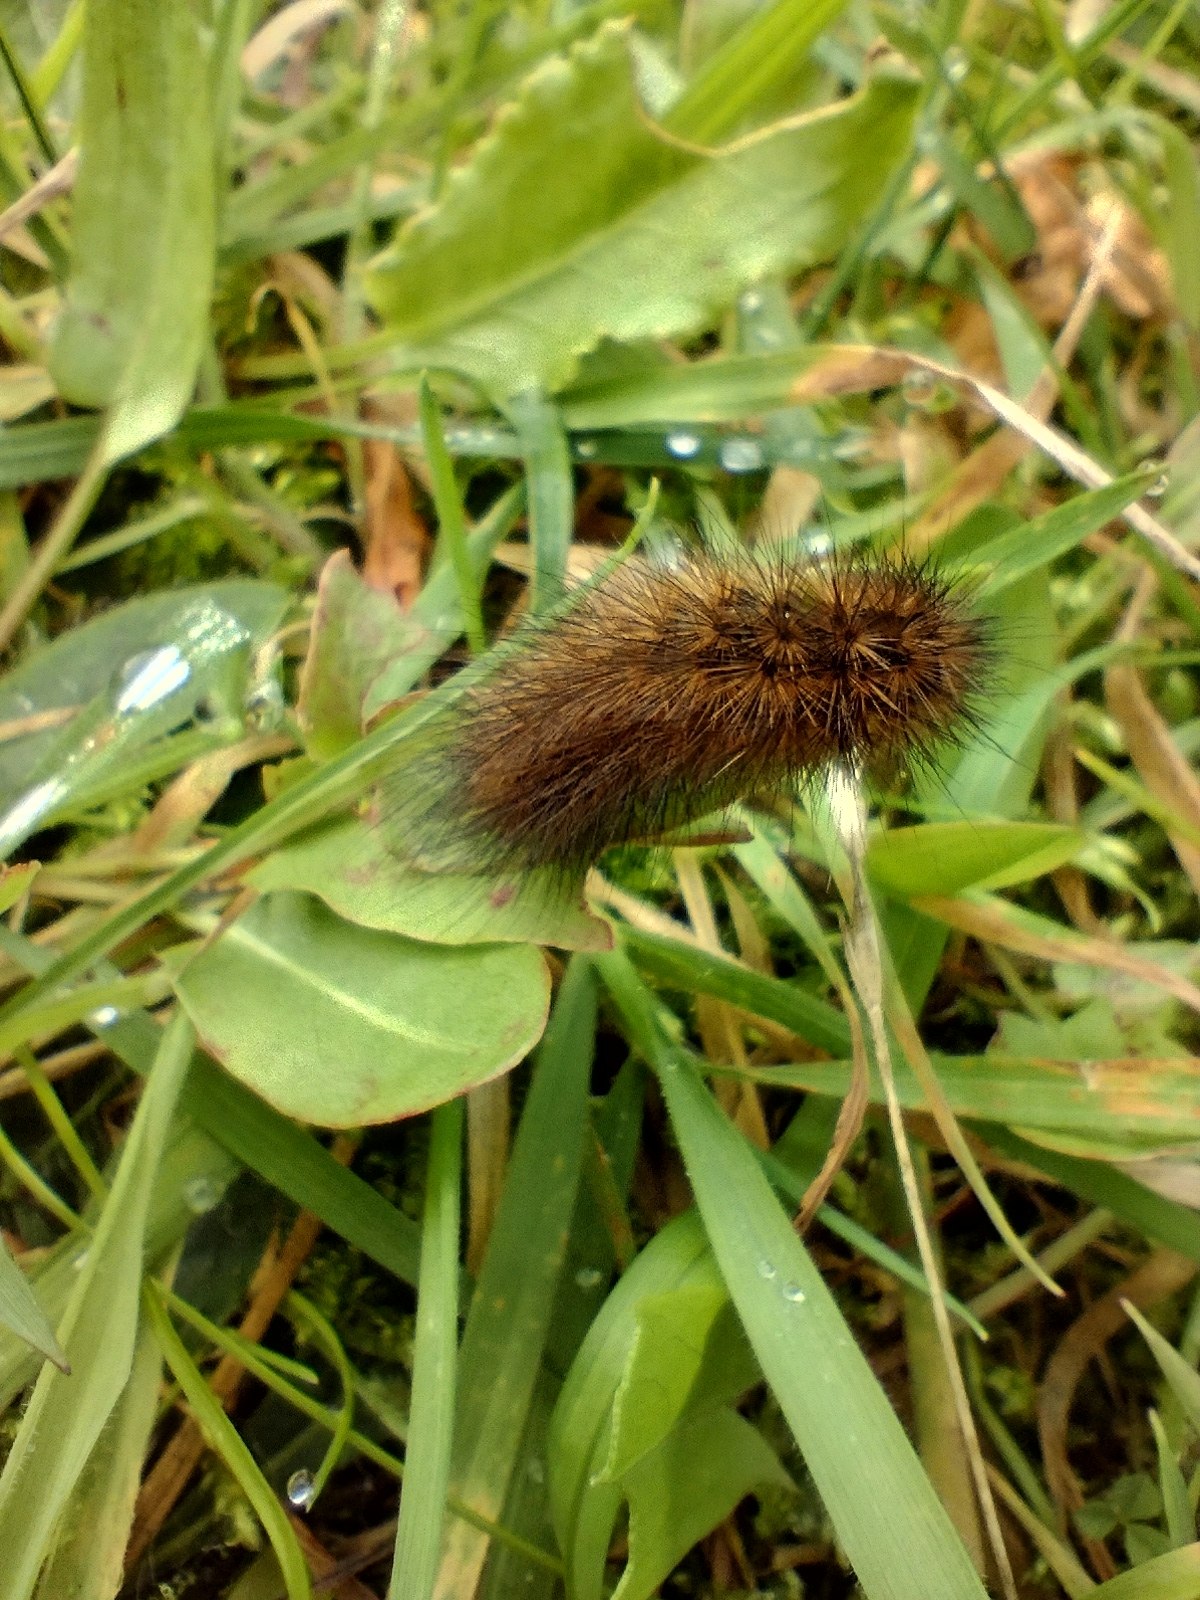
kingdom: Animalia
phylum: Arthropoda
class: Insecta
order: Lepidoptera
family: Erebidae
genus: Phragmatobia
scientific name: Phragmatobia fuliginosa
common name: Kanelbjørn
